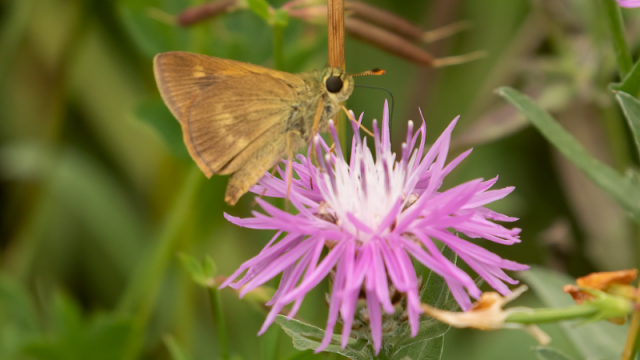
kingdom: Animalia
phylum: Arthropoda
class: Insecta
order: Lepidoptera
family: Hesperiidae
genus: Polites
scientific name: Polites egeremet
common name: Northern Broken-Dash
